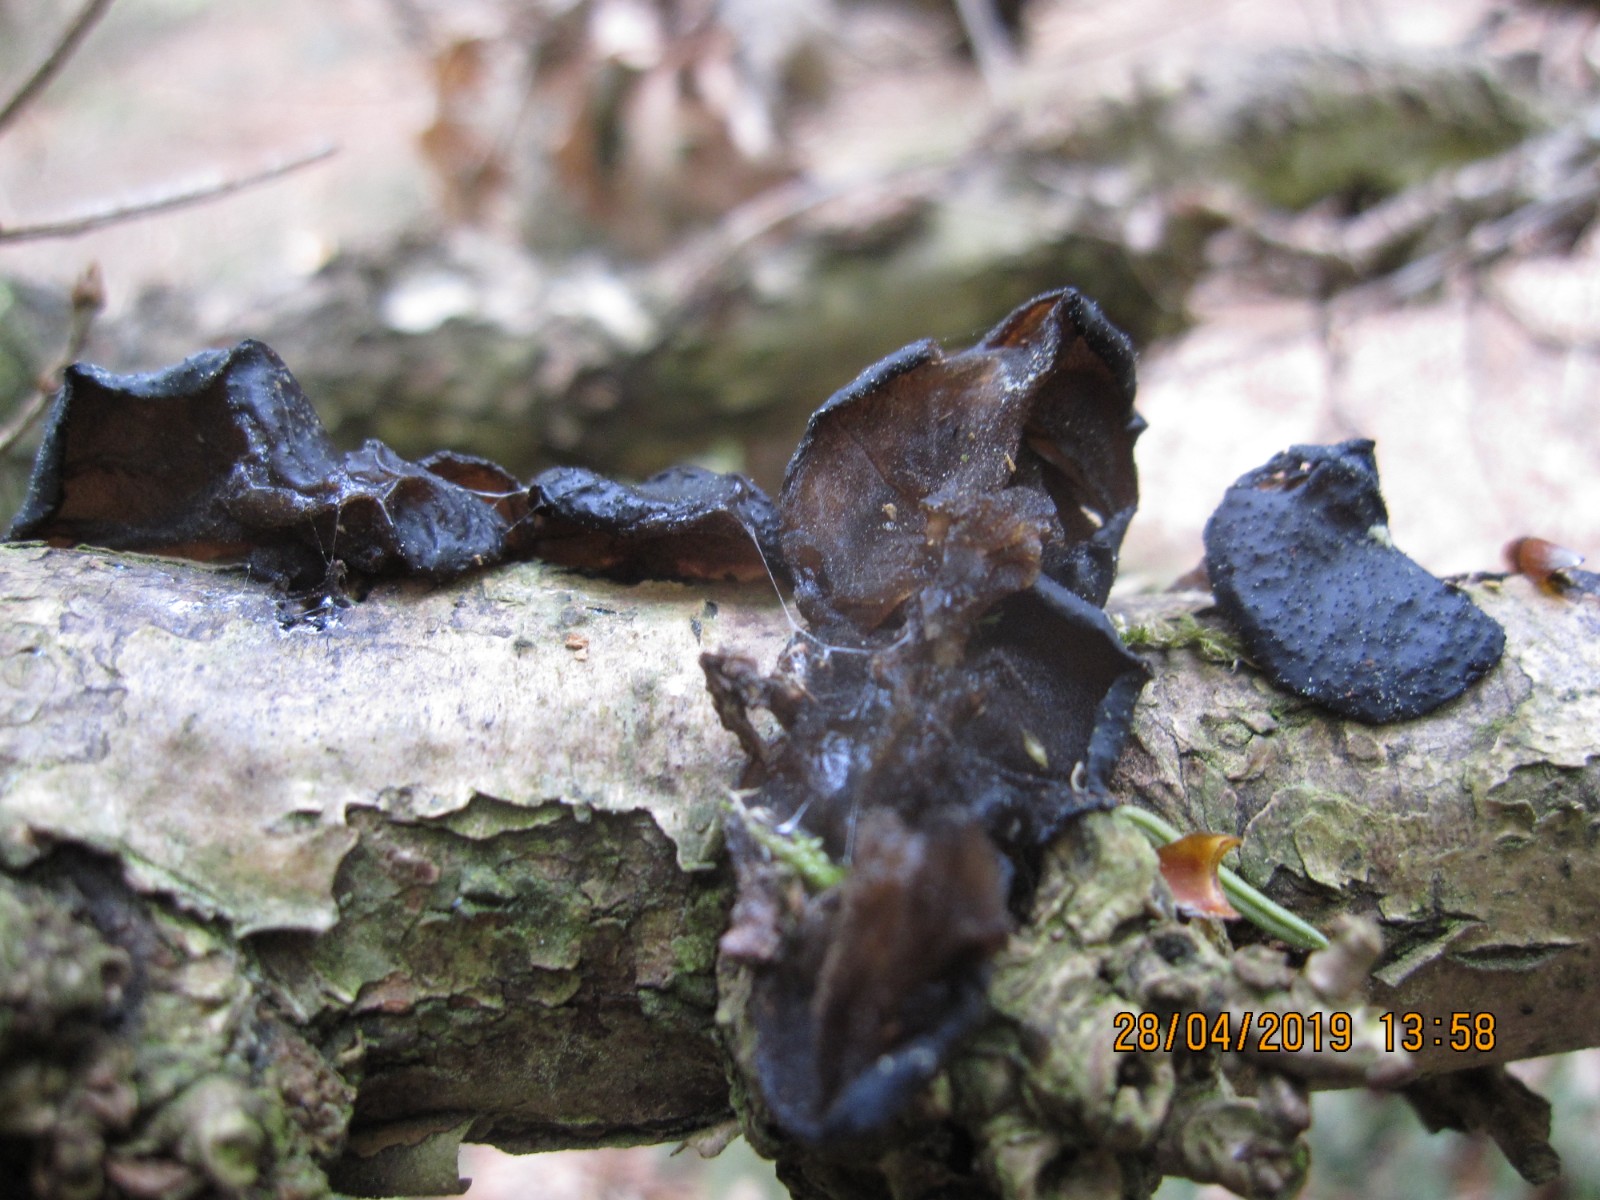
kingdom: Fungi
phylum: Basidiomycota
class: Agaricomycetes
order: Auriculariales
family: Auriculariaceae
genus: Exidia
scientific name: Exidia glandulosa
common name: ege-bævretop
